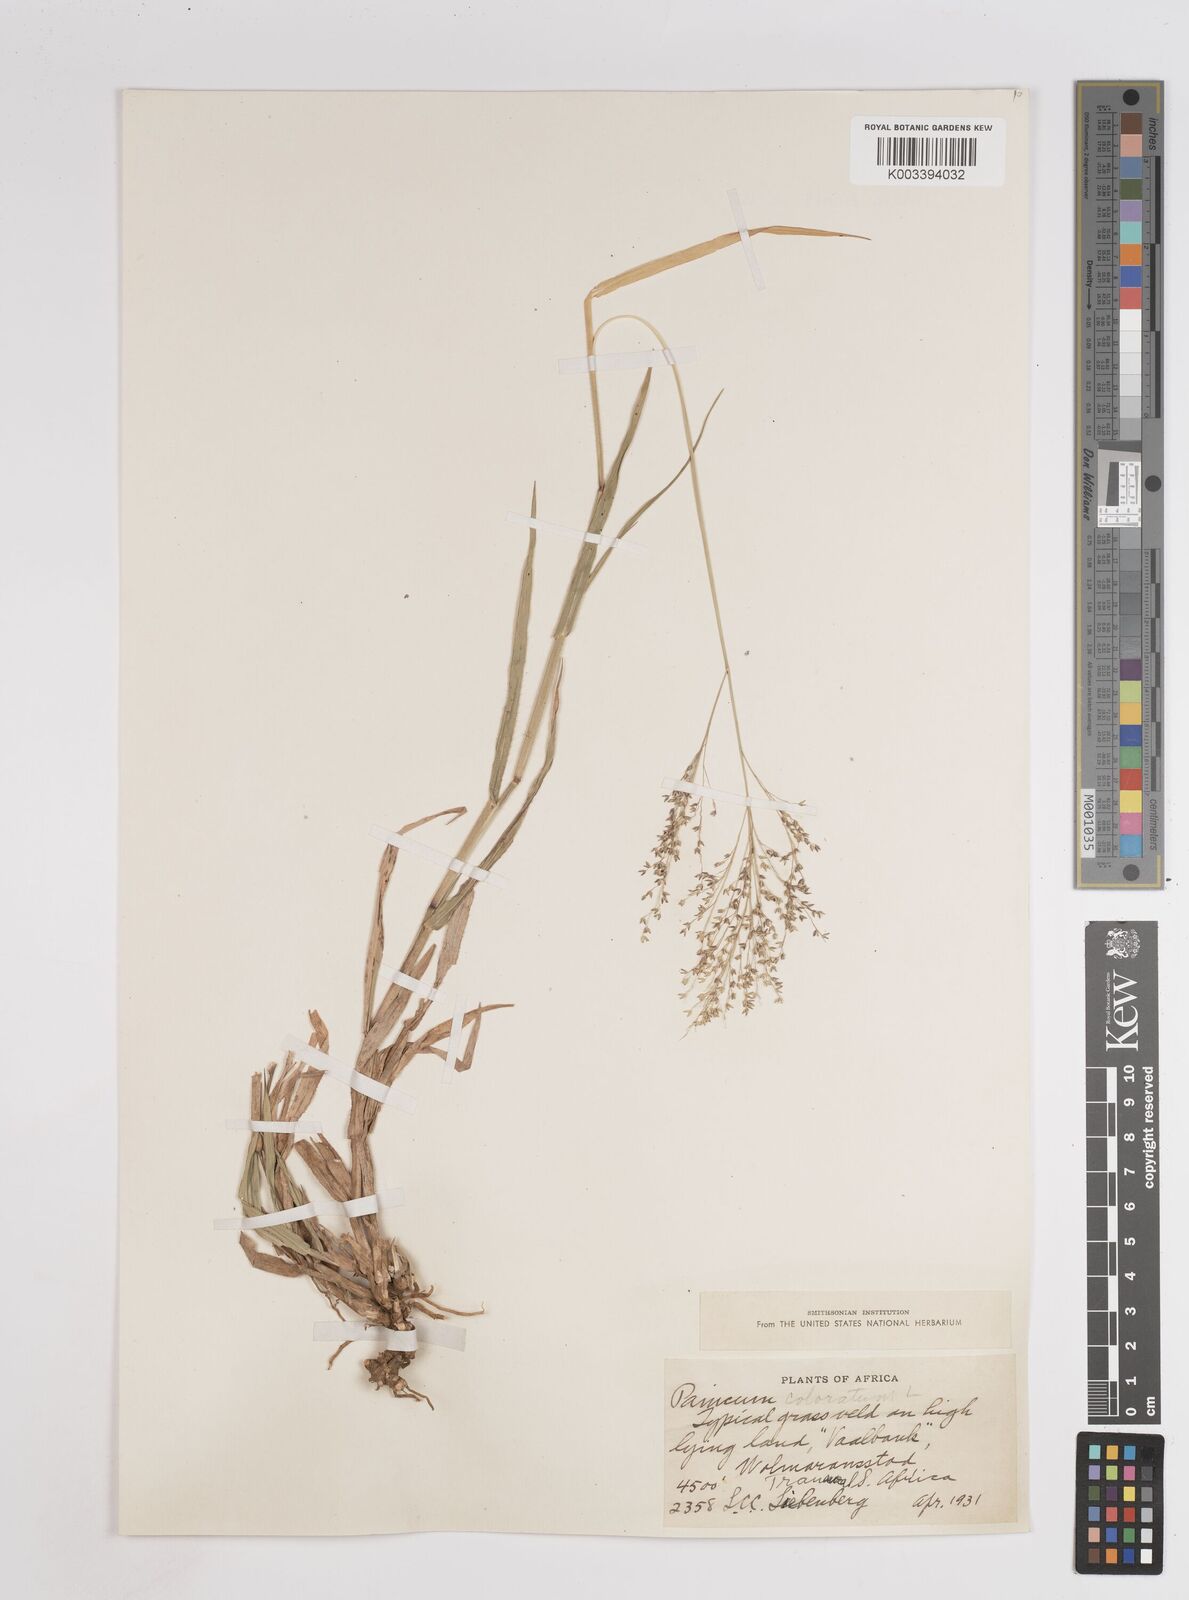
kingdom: Plantae
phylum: Tracheophyta
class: Liliopsida
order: Poales
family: Poaceae
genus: Panicum
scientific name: Panicum coloratum
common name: Kleingrass
